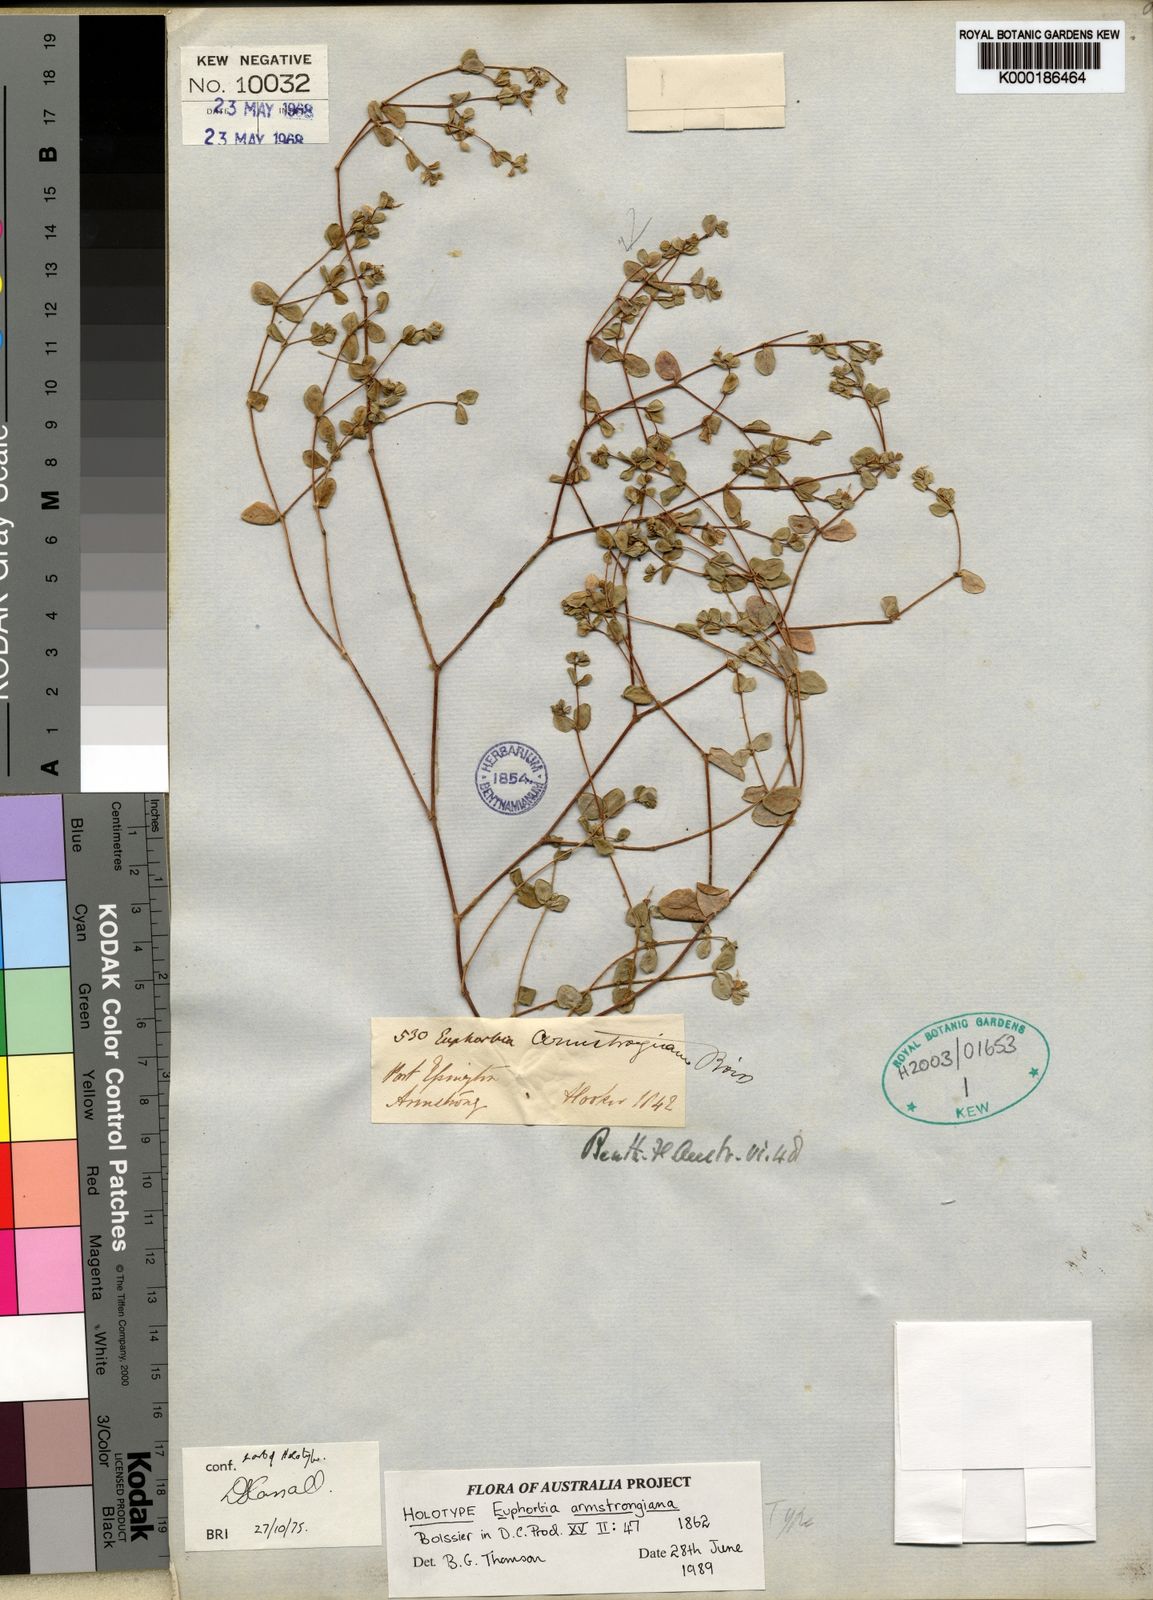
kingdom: Plantae
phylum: Tracheophyta
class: Magnoliopsida
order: Malpighiales
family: Euphorbiaceae
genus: Euphorbia
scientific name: Euphorbia armstrongiana
